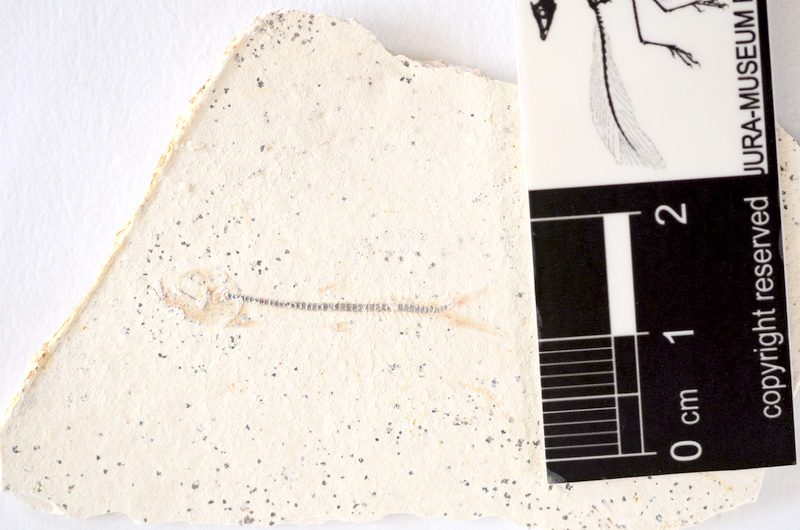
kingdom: Animalia
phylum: Chordata
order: Salmoniformes
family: Orthogonikleithridae
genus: Orthogonikleithrus
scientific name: Orthogonikleithrus hoelli
